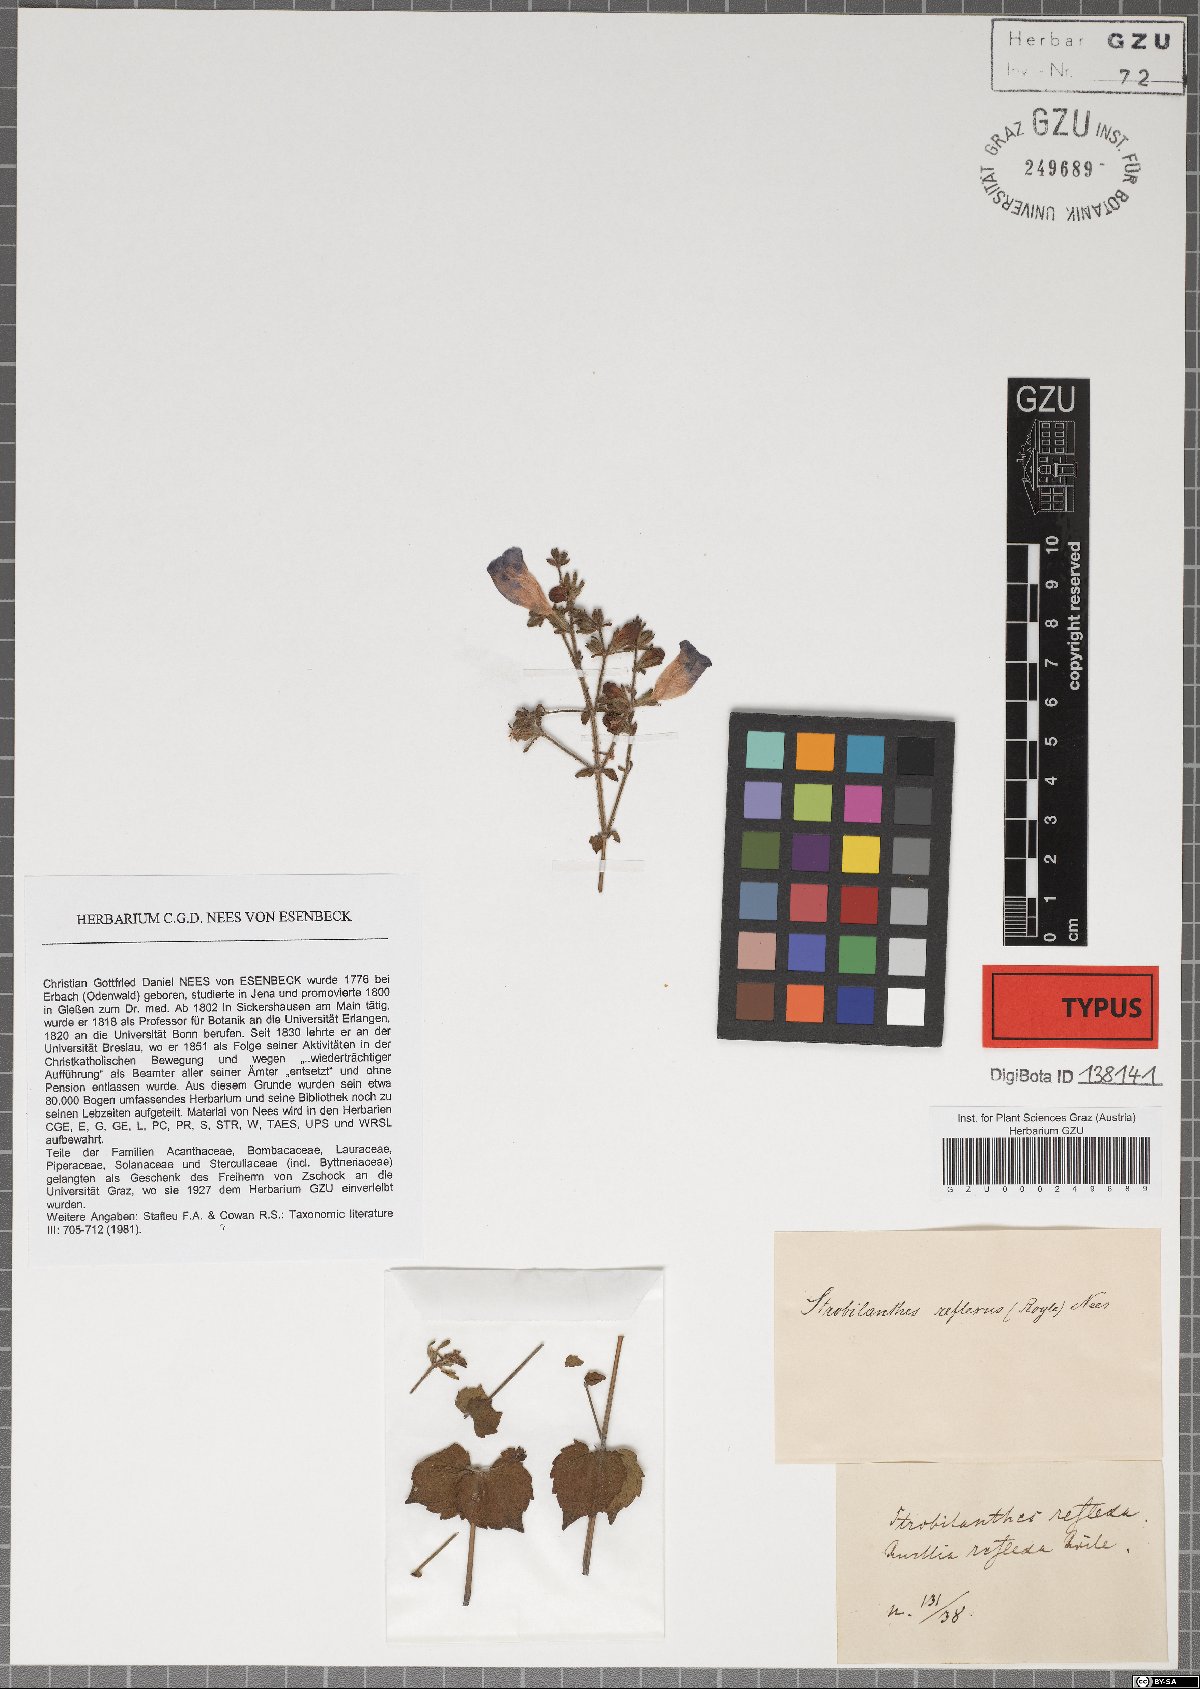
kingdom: Plantae
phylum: Tracheophyta
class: Magnoliopsida
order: Lamiales
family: Acanthaceae
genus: Strobilanthes
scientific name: Strobilanthes attenuata
